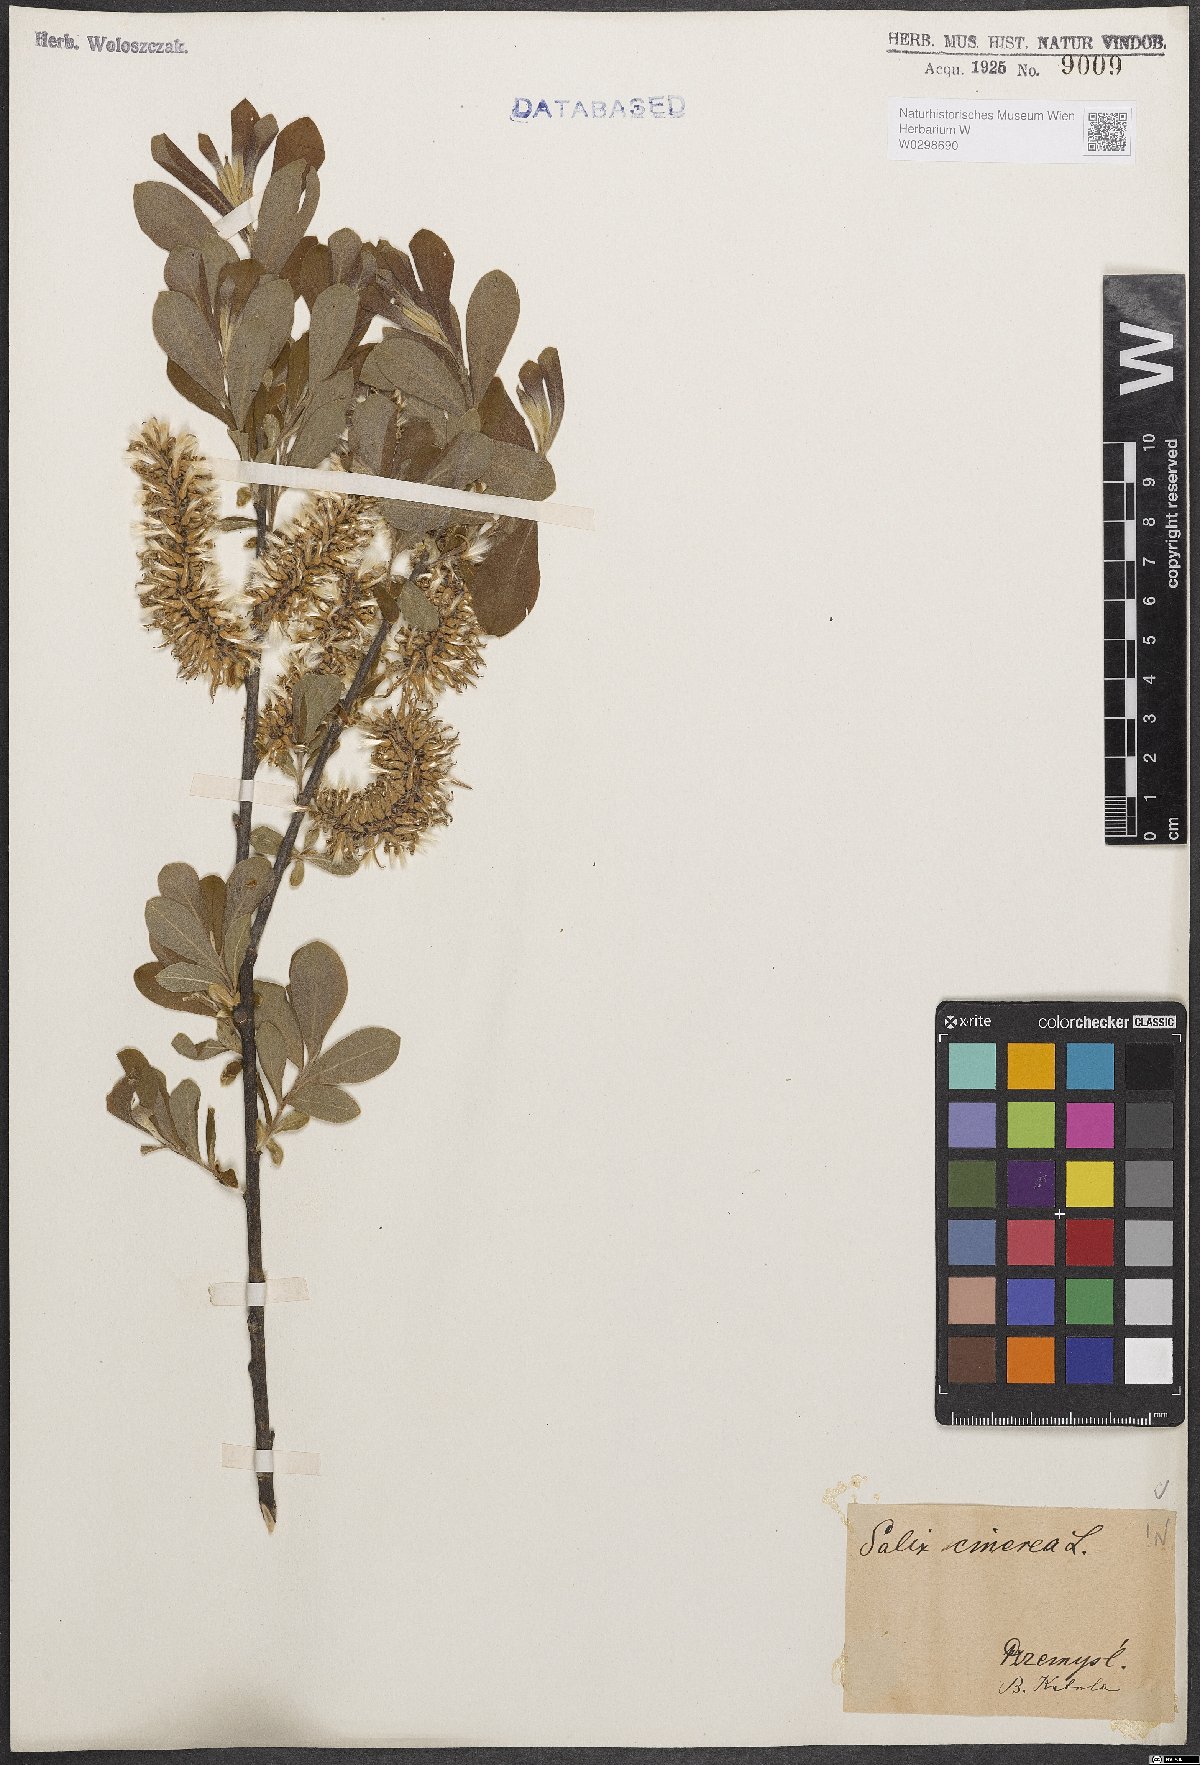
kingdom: Plantae
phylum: Tracheophyta
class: Magnoliopsida
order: Malpighiales
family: Salicaceae
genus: Salix
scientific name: Salix cinerea
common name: Common sallow
